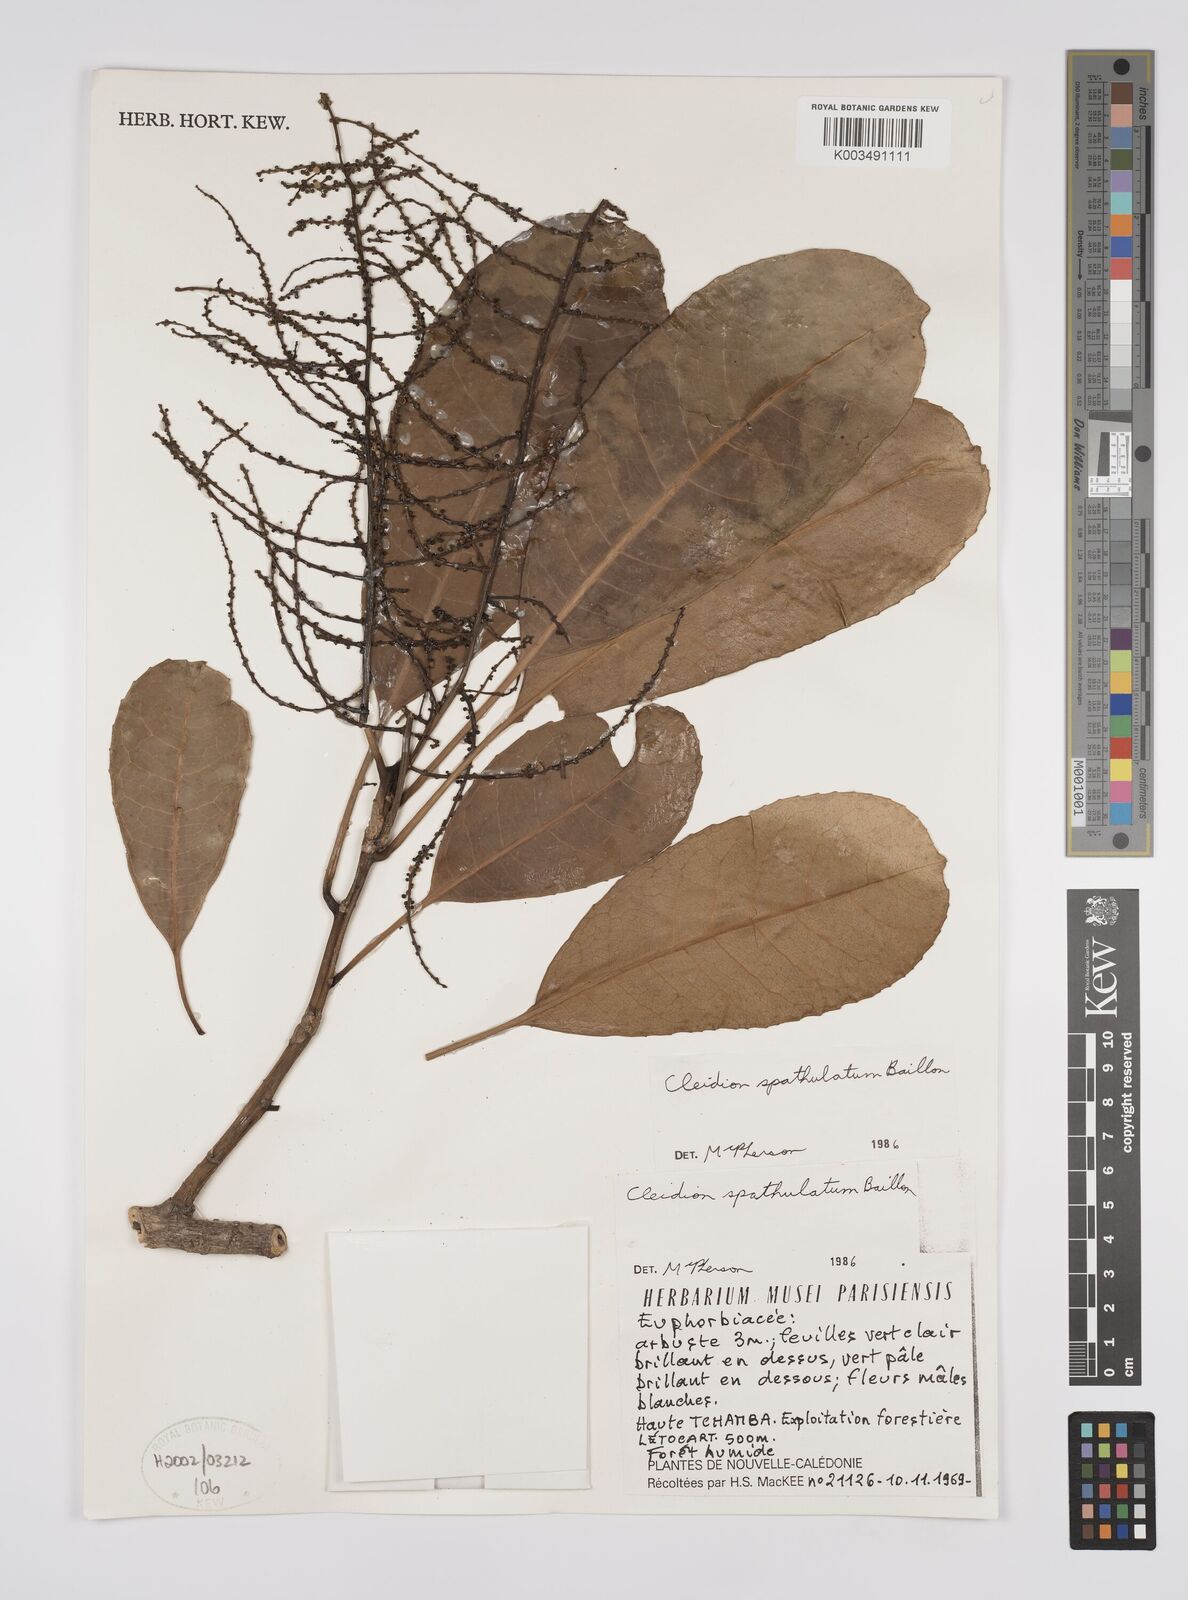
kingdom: Plantae
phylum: Tracheophyta
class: Magnoliopsida
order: Malpighiales
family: Euphorbiaceae
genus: Cleidion
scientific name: Cleidion spathulatum
